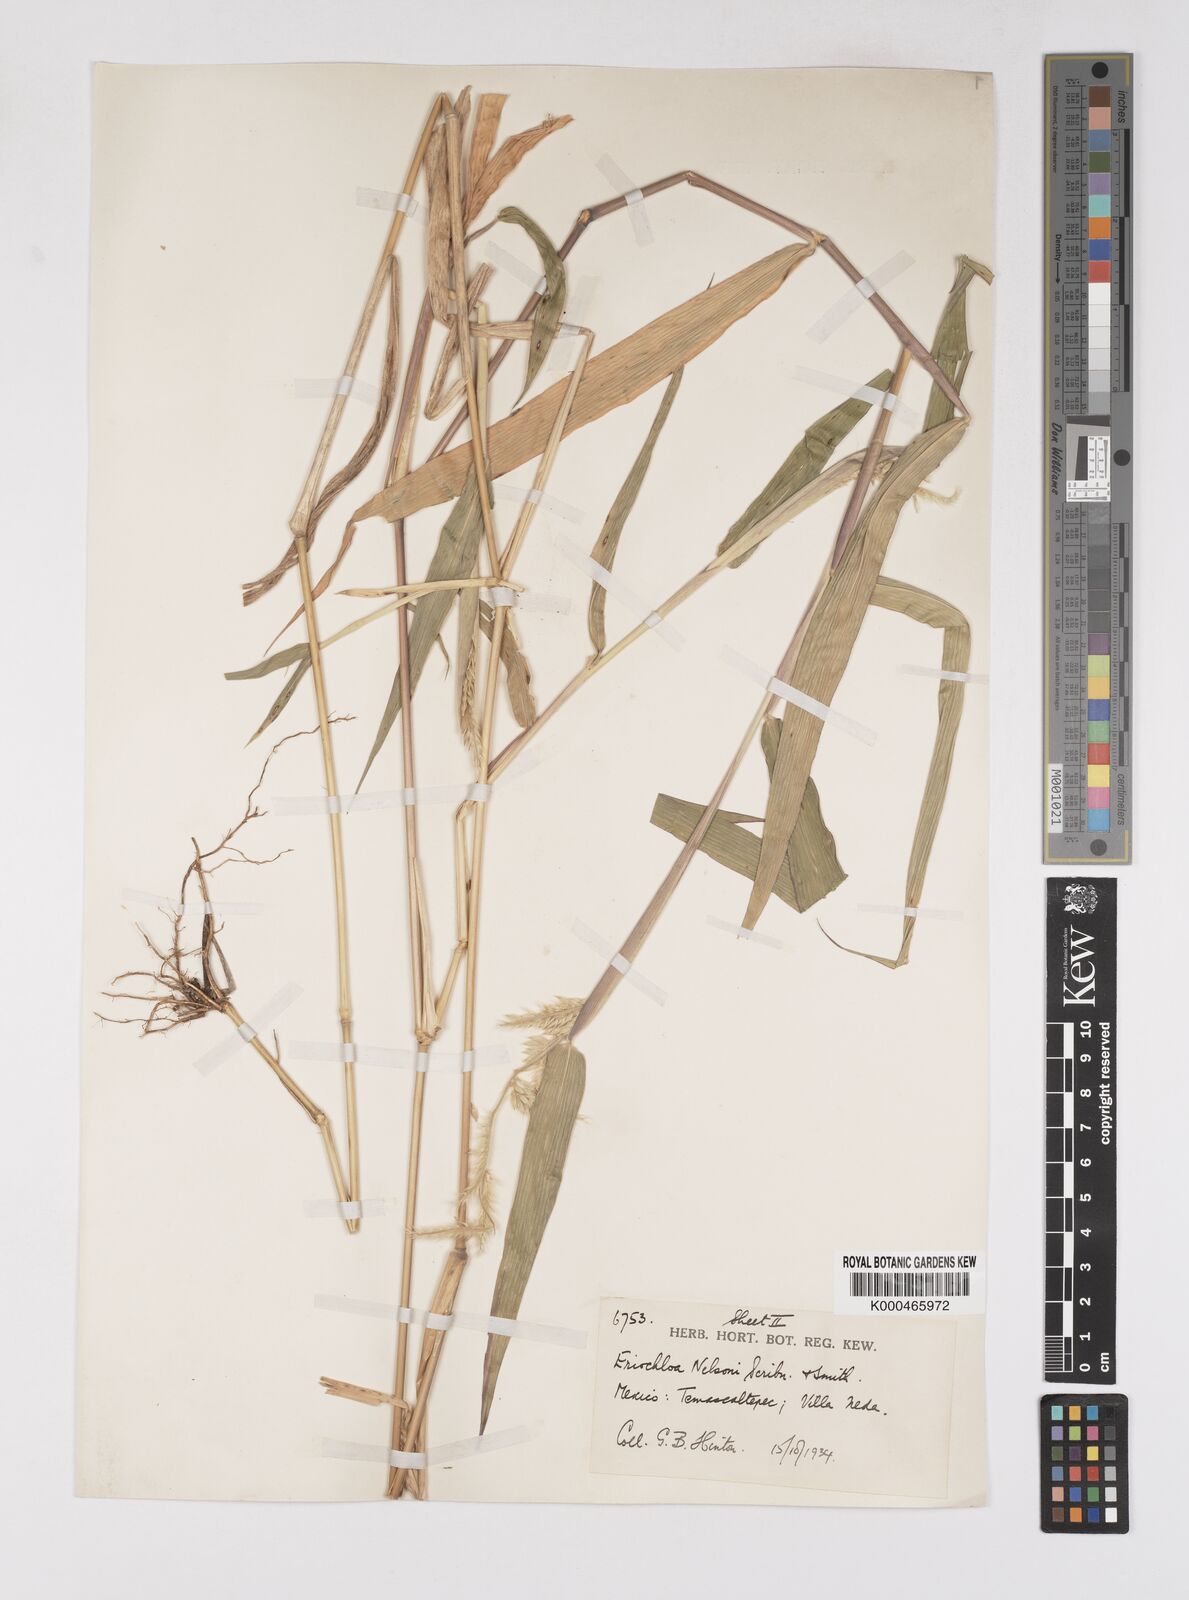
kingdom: Plantae
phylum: Tracheophyta
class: Liliopsida
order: Poales
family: Poaceae
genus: Eriochloa
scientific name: Eriochloa nelsonii
